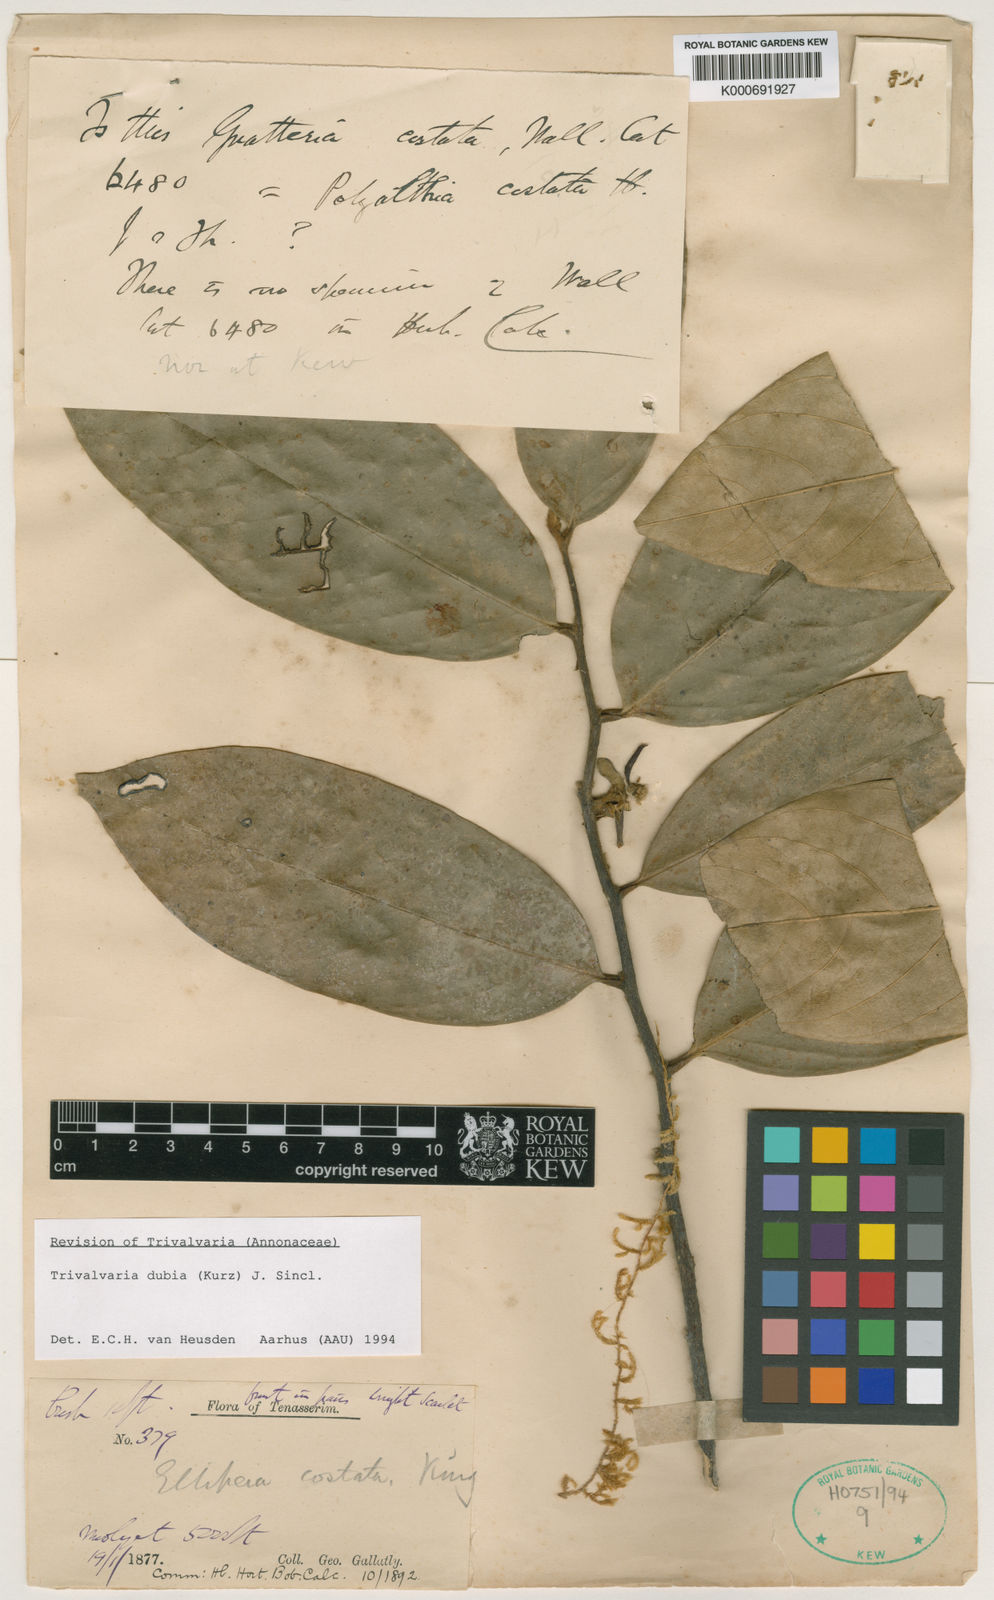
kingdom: Plantae
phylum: Tracheophyta
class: Magnoliopsida
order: Magnoliales
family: Annonaceae
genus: Trivalvaria
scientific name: Trivalvaria costata
